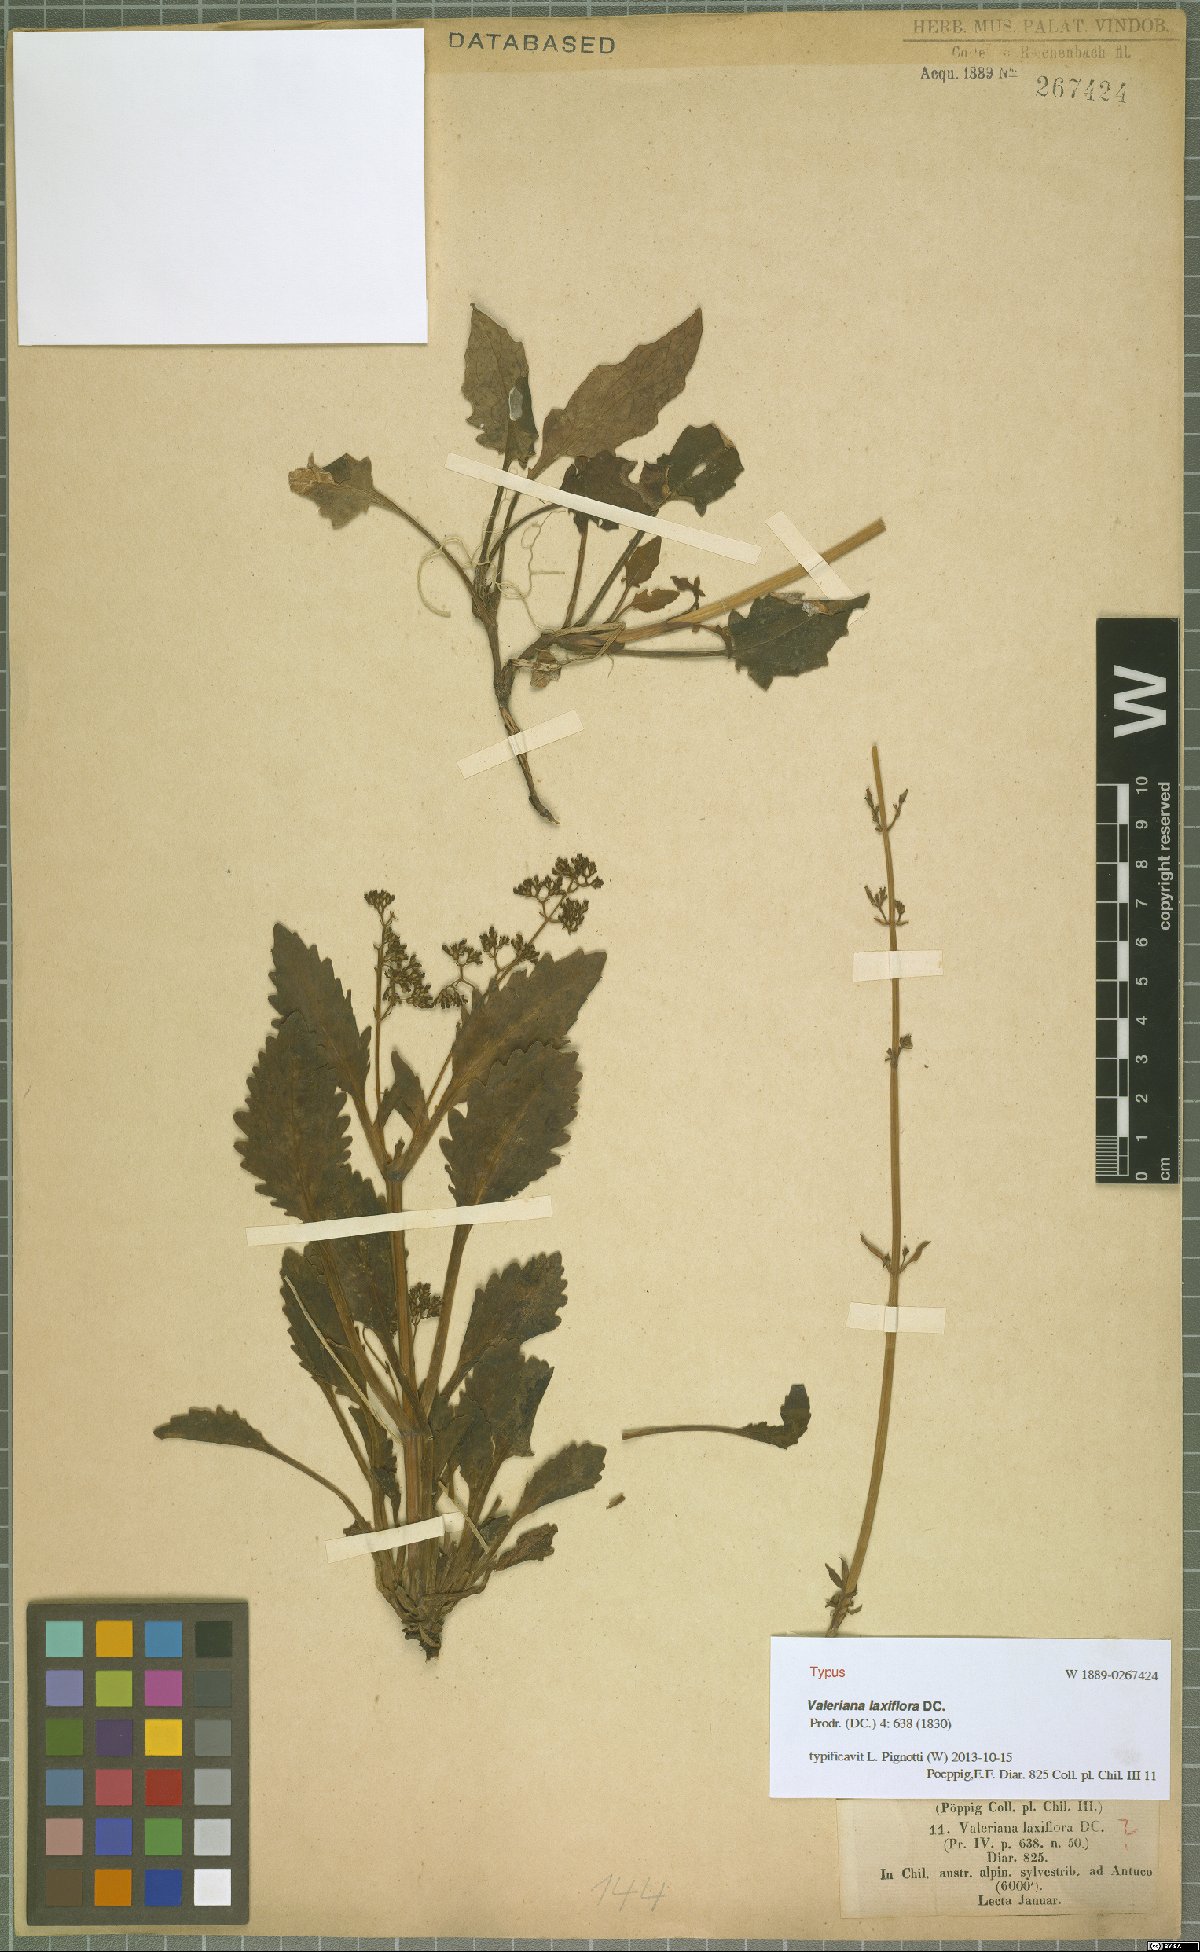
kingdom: Plantae
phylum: Tracheophyta
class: Magnoliopsida
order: Dipsacales
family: Caprifoliaceae
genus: Valeriana
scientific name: Valeriana laxiflora
